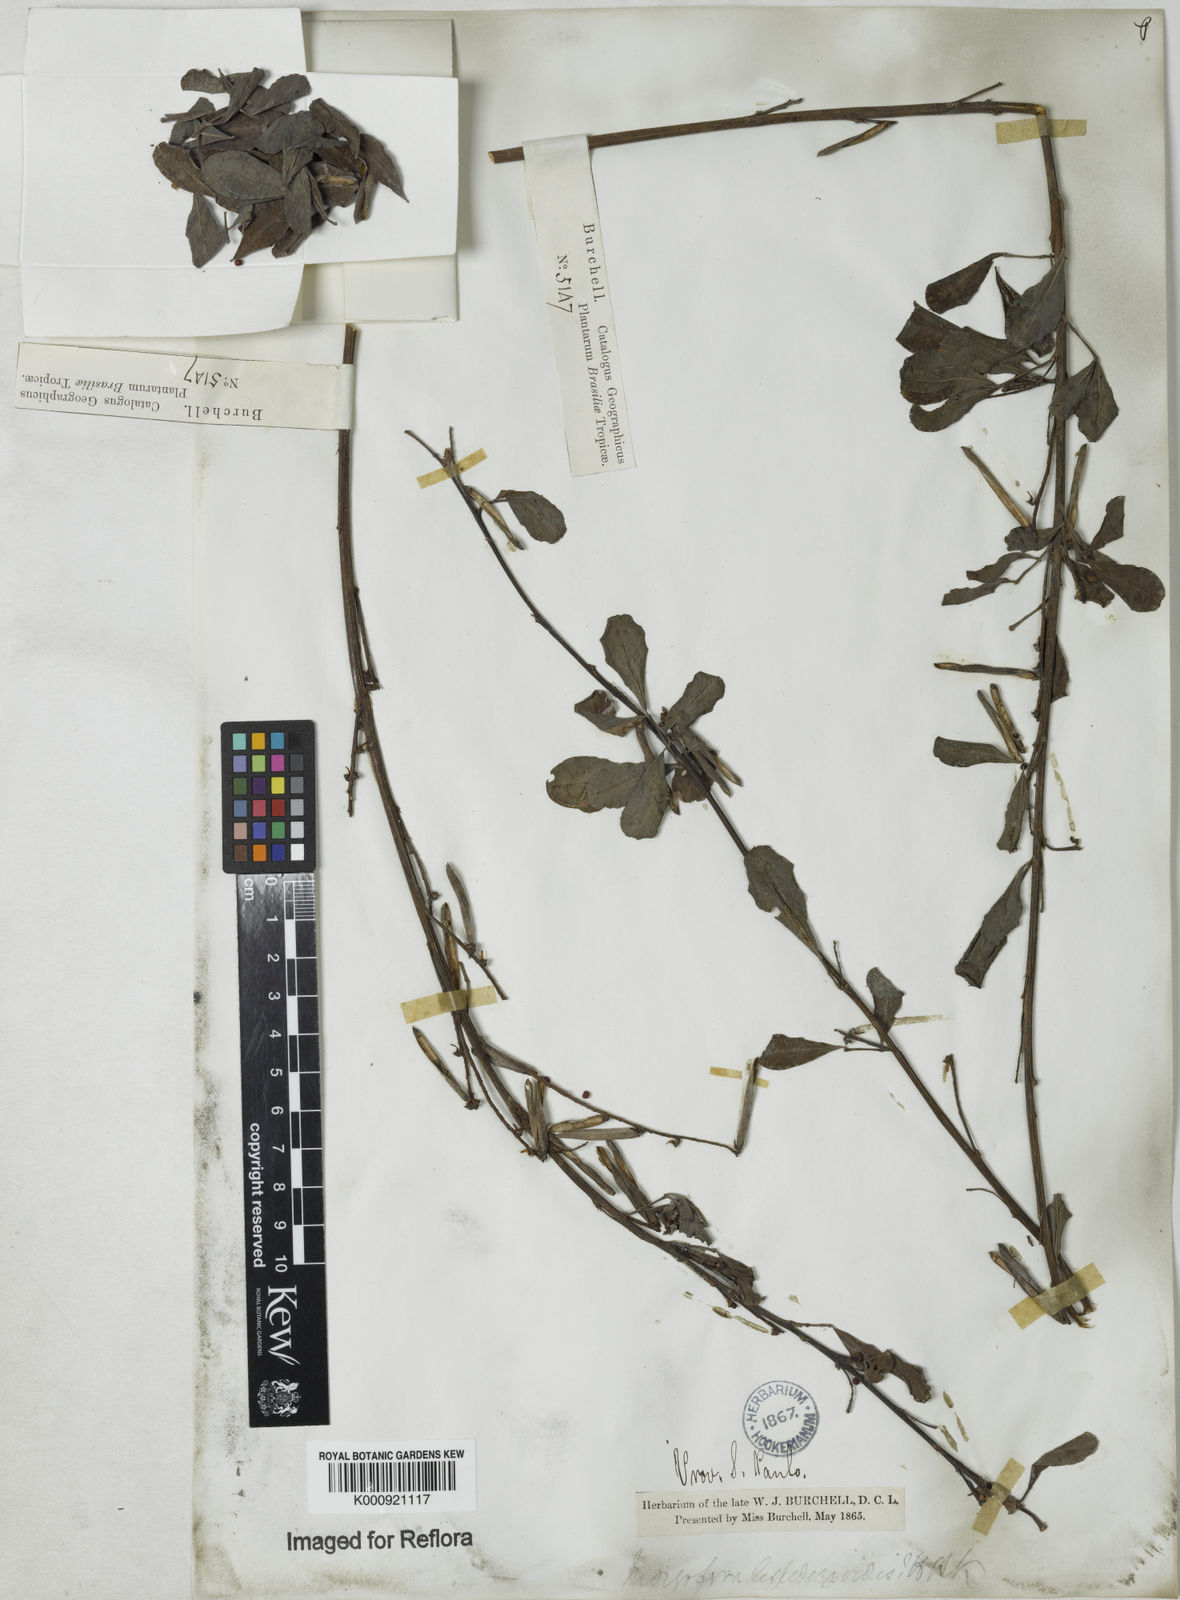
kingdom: Plantae
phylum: Tracheophyta
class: Magnoliopsida
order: Fabales
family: Fabaceae
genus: Indigofera
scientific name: Indigofera lespedezioides
